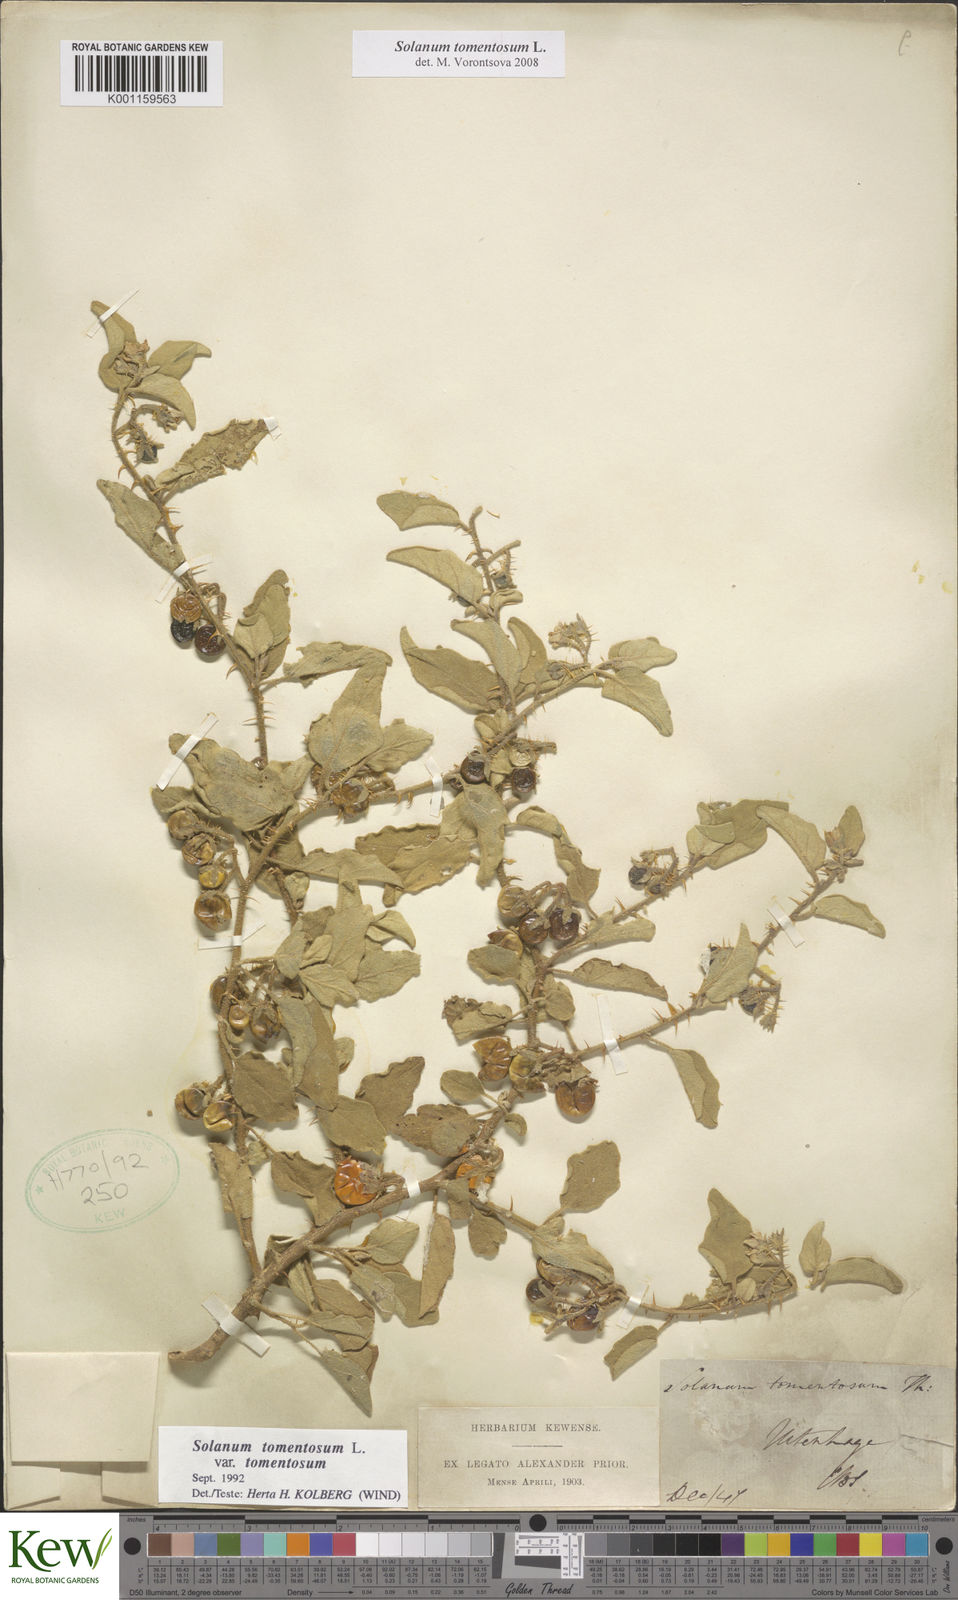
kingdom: Plantae
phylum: Tracheophyta
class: Magnoliopsida
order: Solanales
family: Solanaceae
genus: Solanum
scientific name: Solanum tomentosum
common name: Wild aubergine
